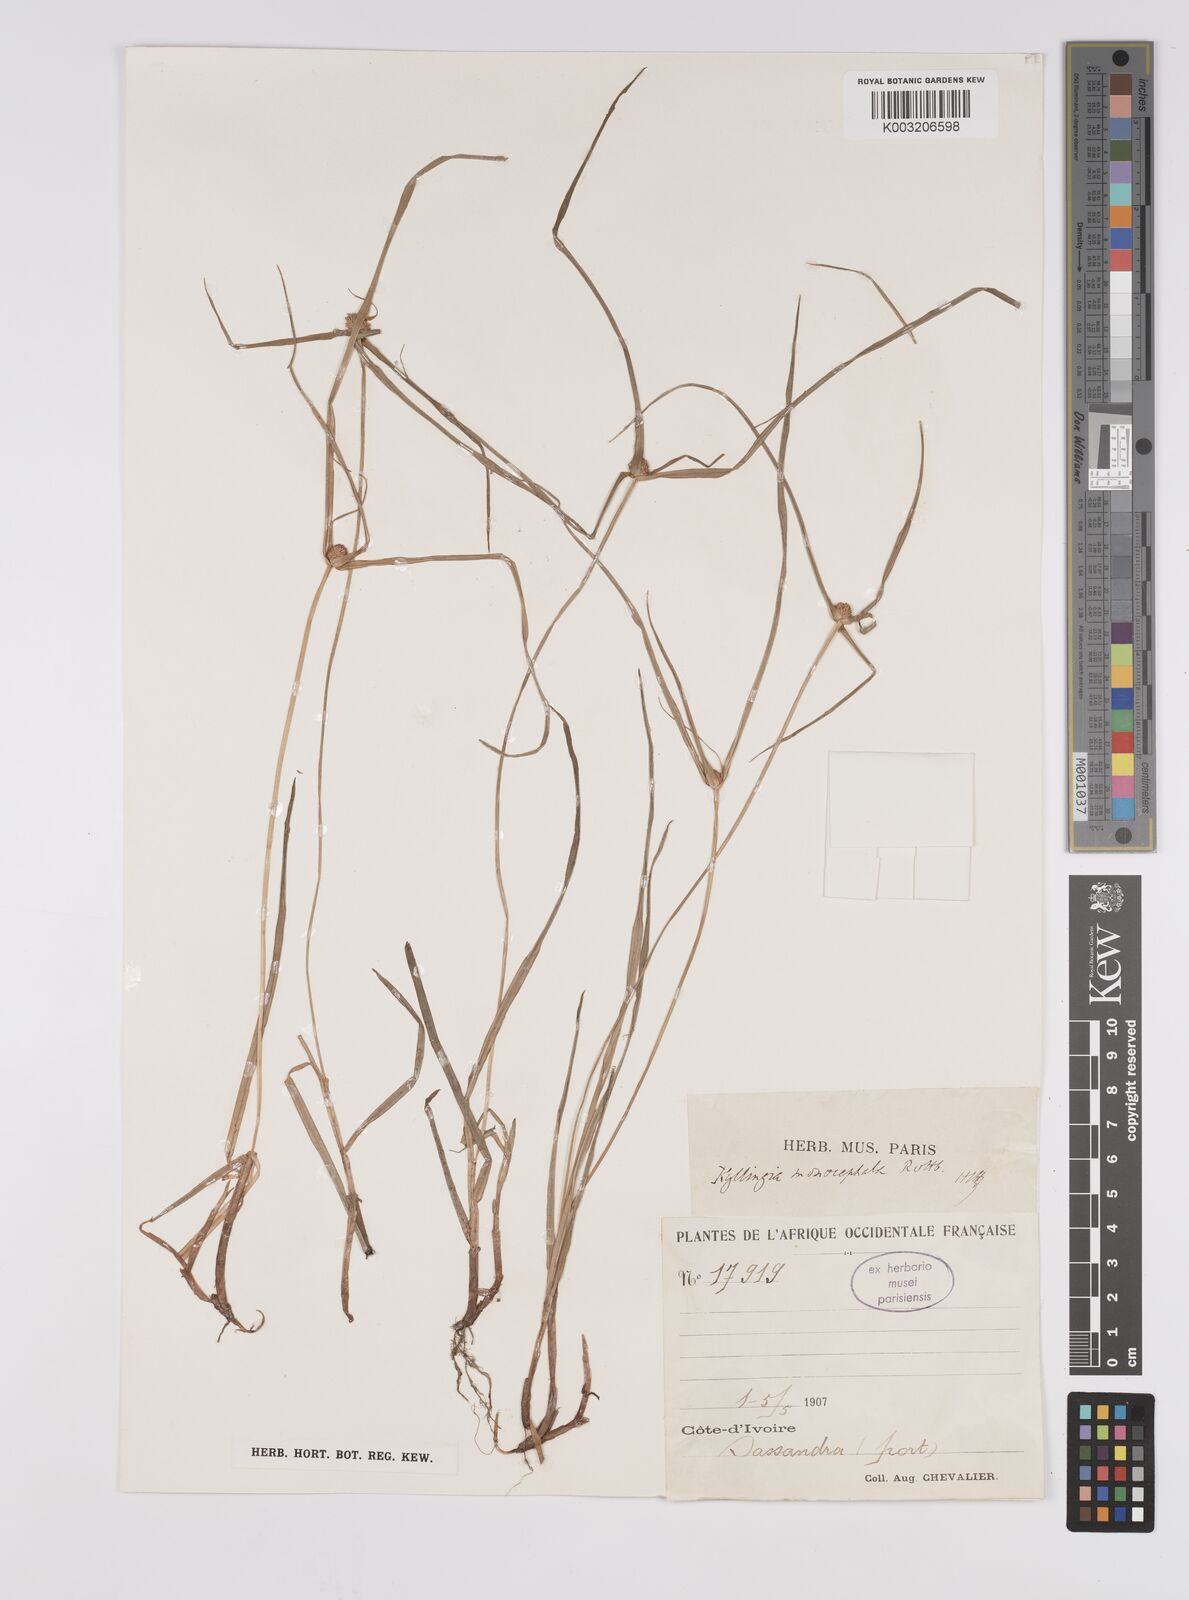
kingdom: Plantae
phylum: Tracheophyta
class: Liliopsida
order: Poales
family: Cyperaceae
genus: Cyperus
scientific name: Cyperus nemoralis
